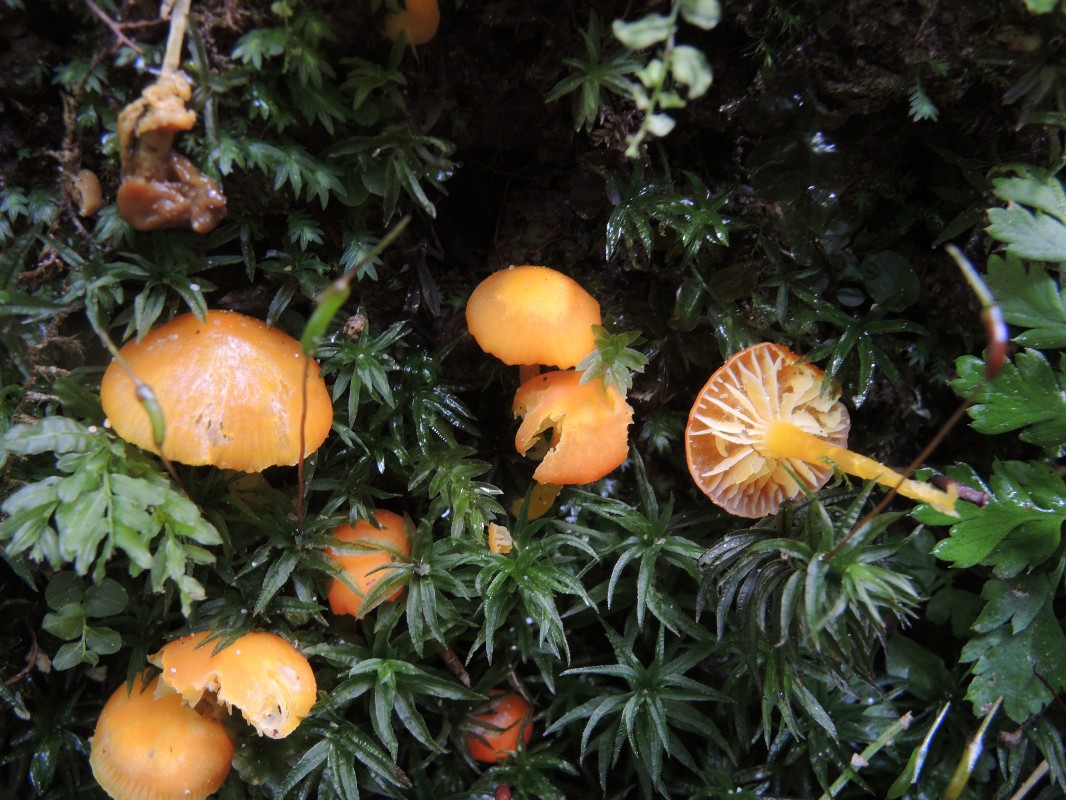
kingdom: Fungi
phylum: Basidiomycota
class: Agaricomycetes
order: Agaricales
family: Hygrophoraceae
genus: Hygrocybe
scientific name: Hygrocybe insipida
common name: liden vokshat
